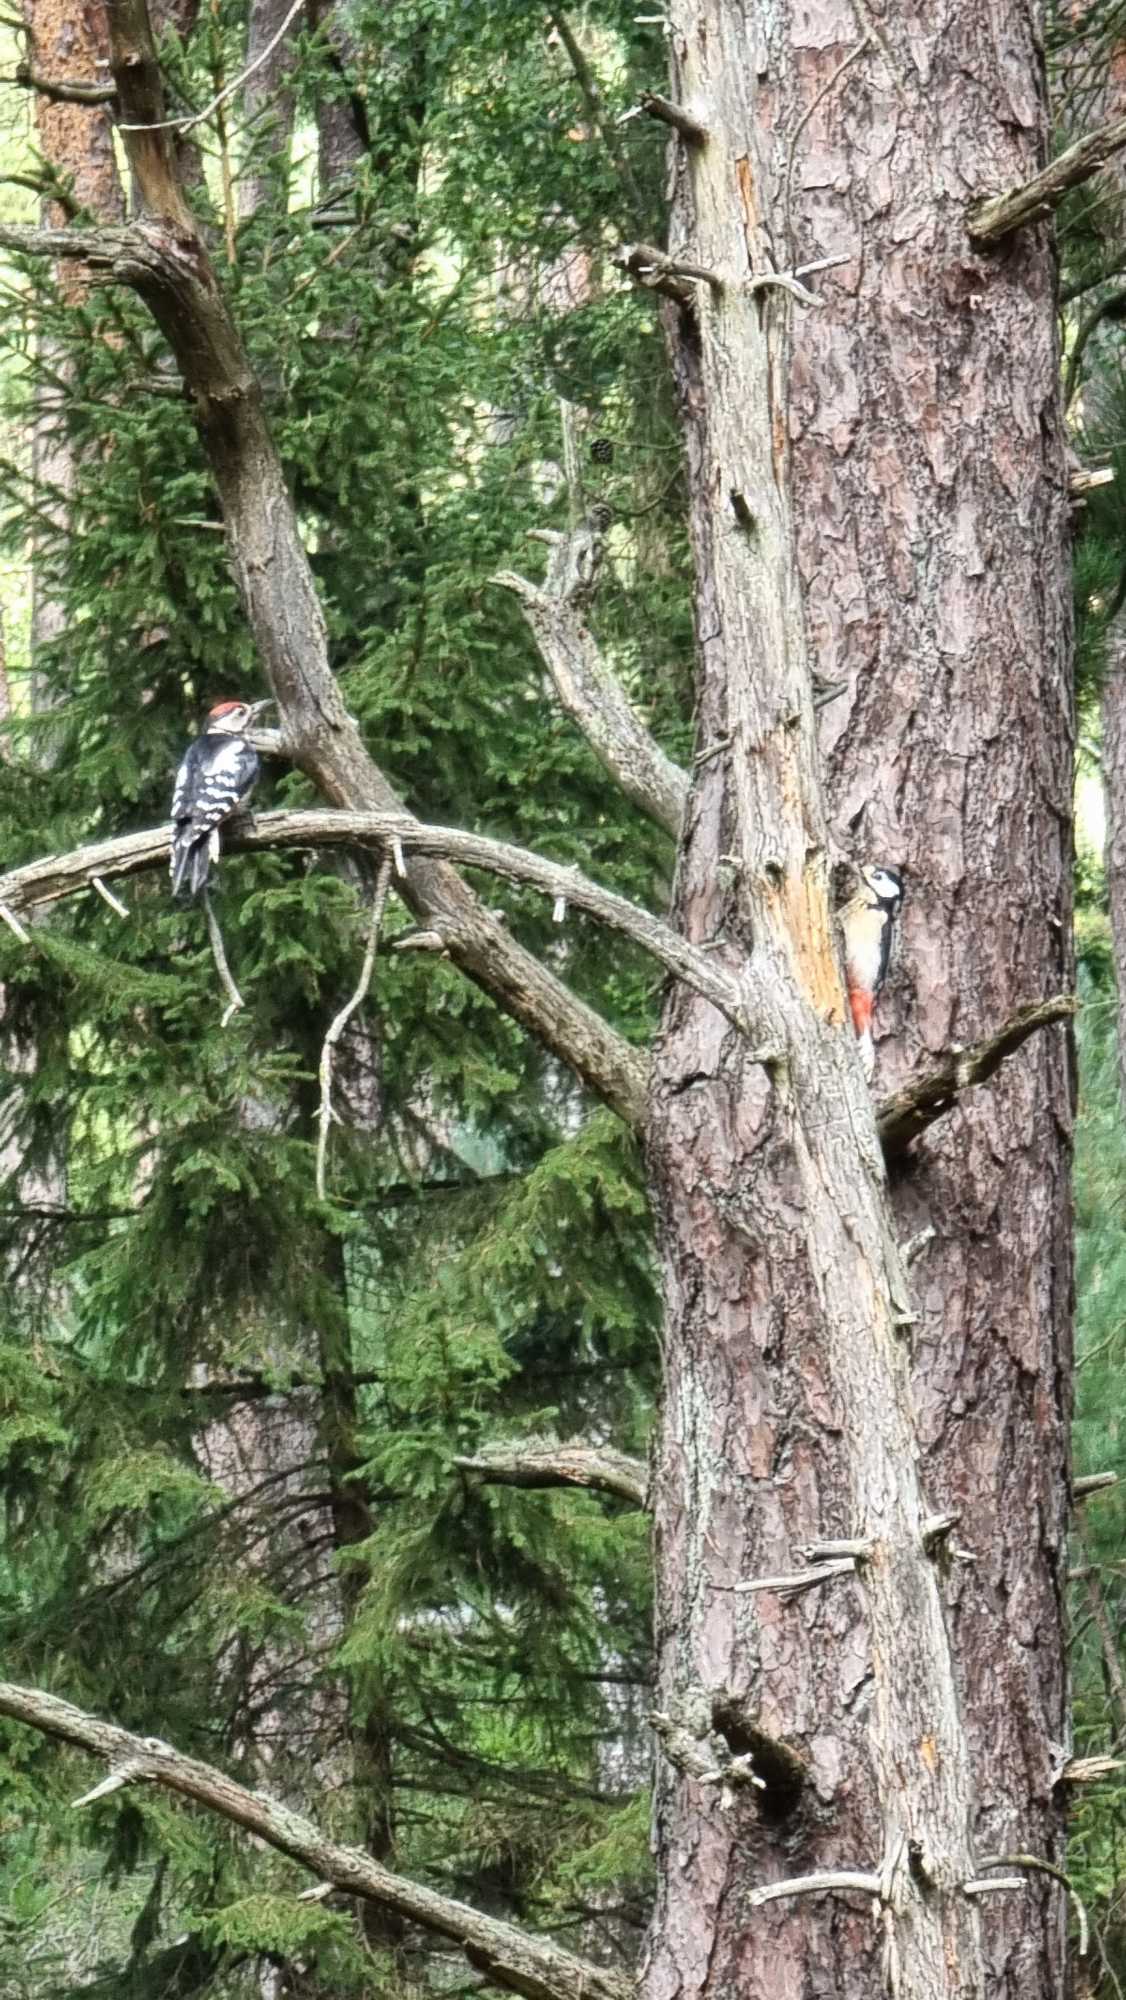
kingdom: Animalia
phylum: Chordata
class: Aves
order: Piciformes
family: Picidae
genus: Dendrocopos
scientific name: Dendrocopos major
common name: Stor flagspætte
